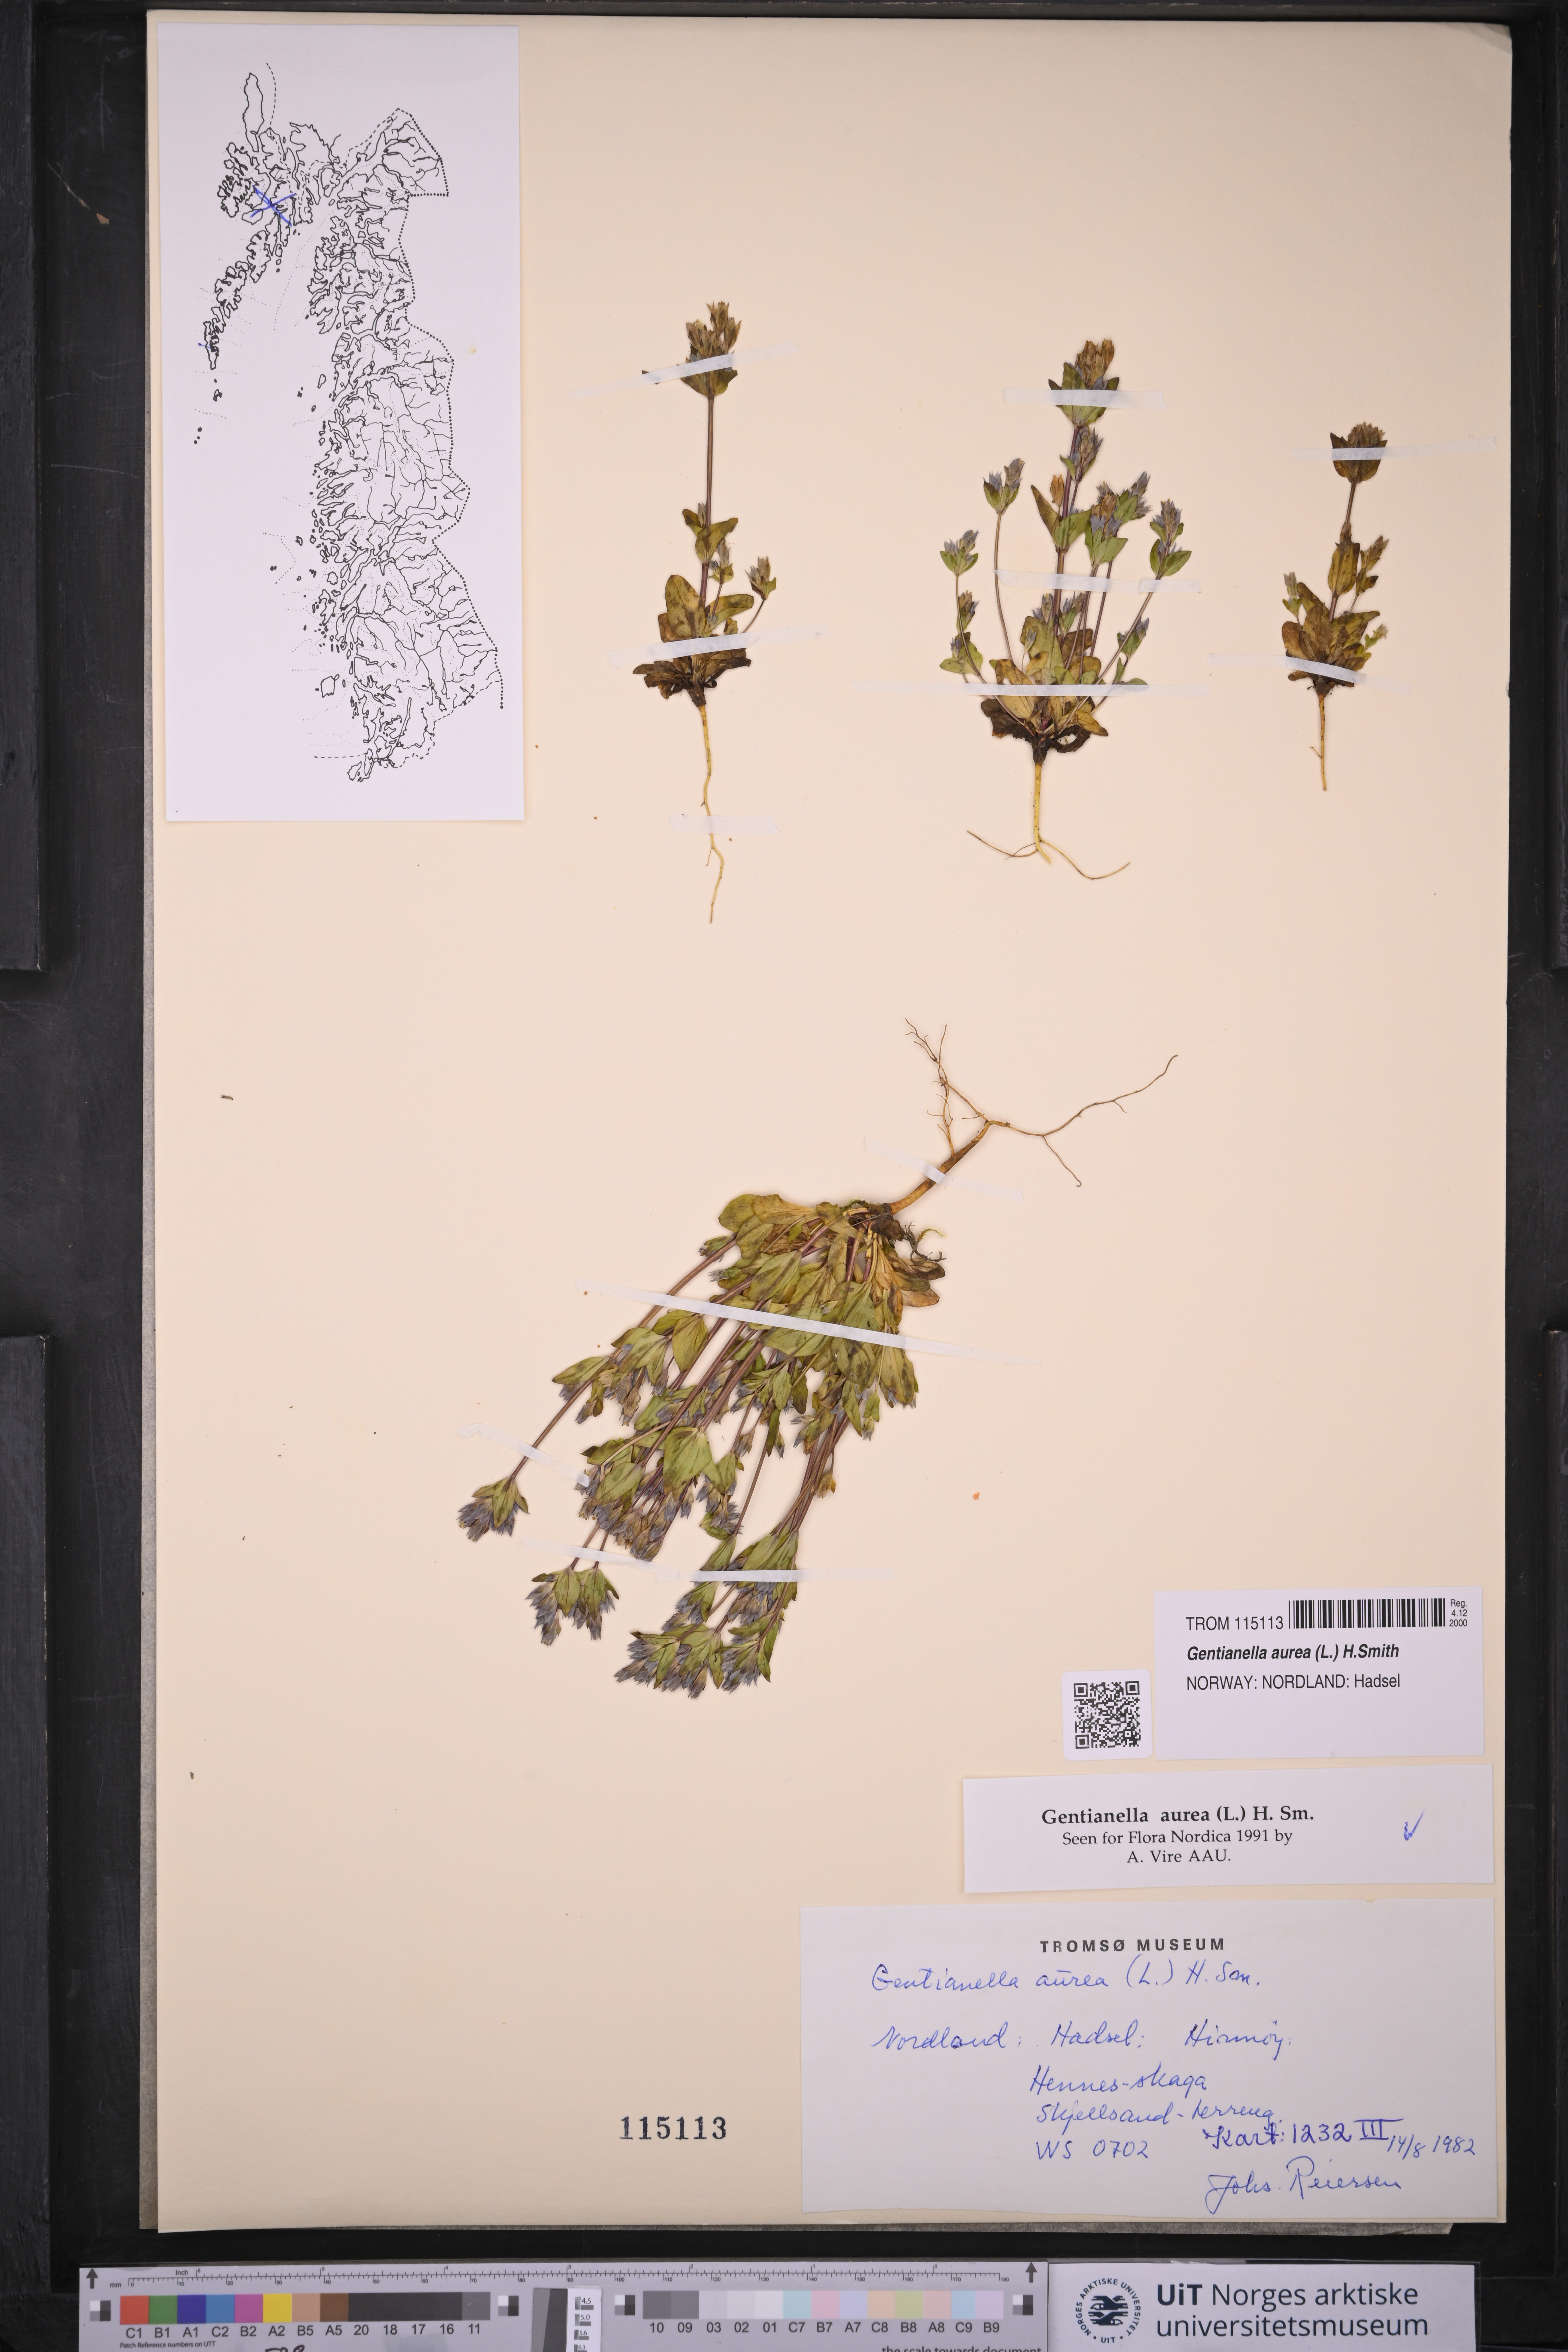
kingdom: Plantae
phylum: Tracheophyta
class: Magnoliopsida
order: Gentianales
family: Gentianaceae
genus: Gentianella
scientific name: Gentianella aurea
